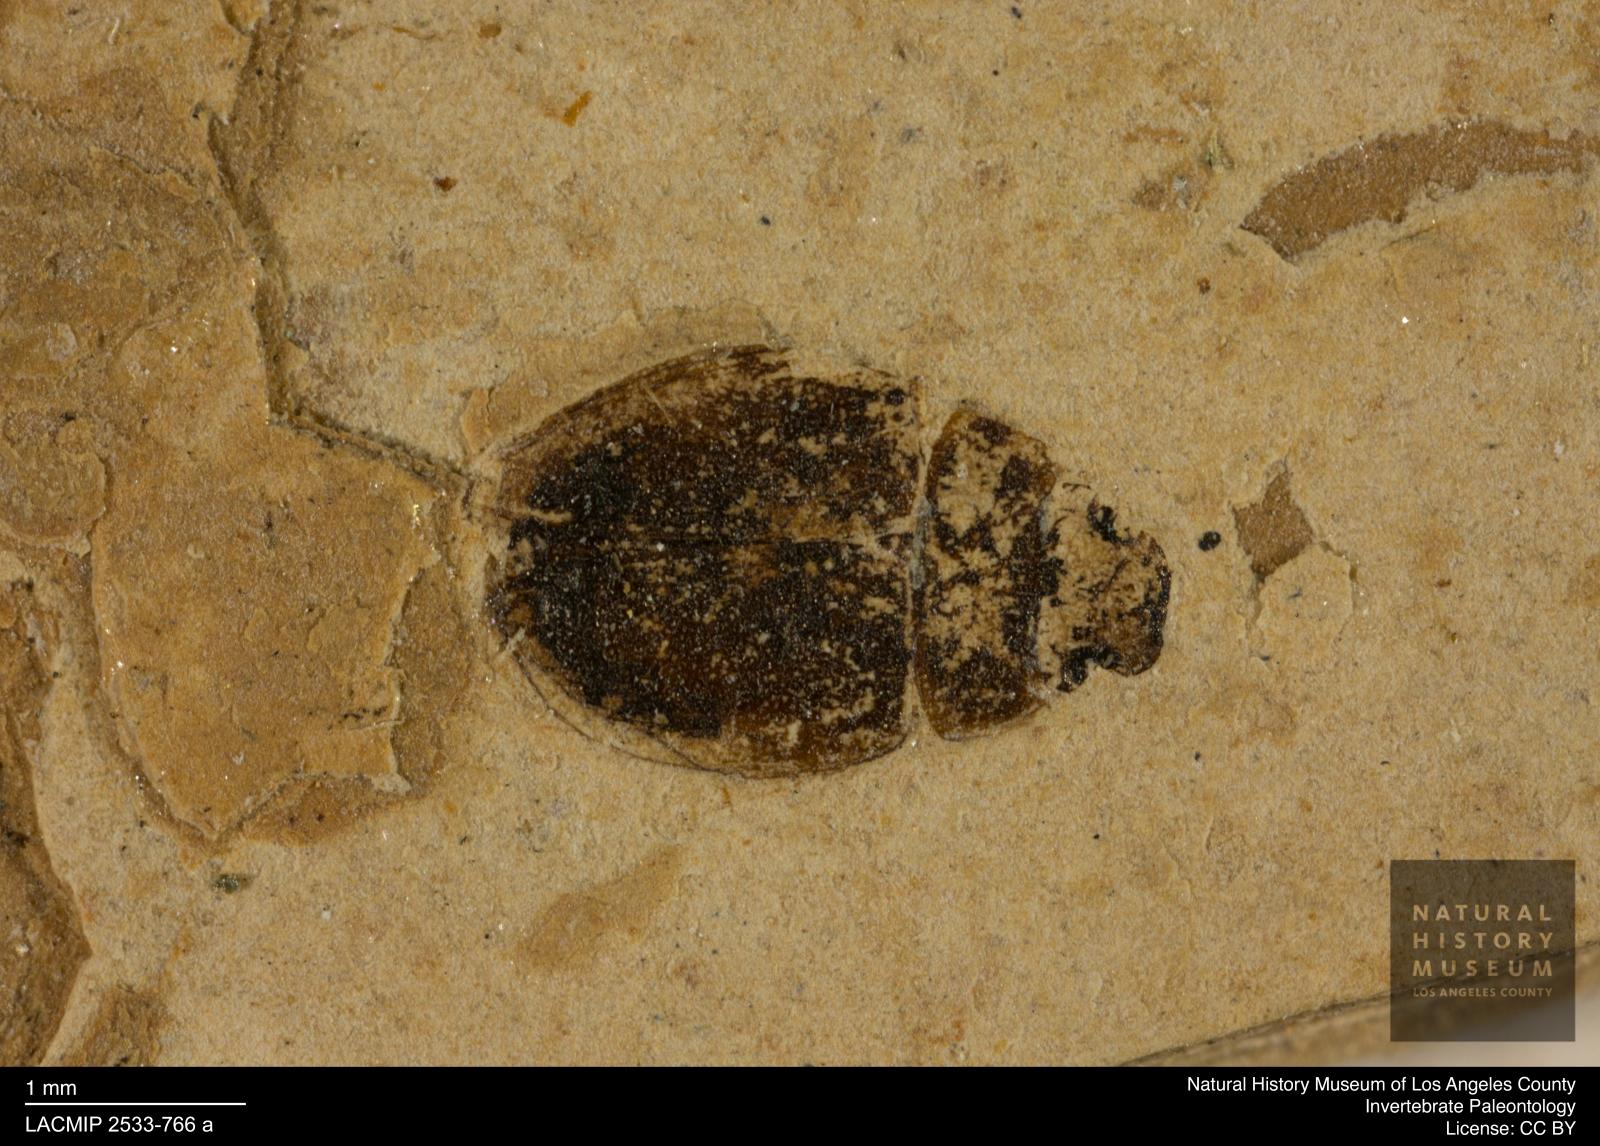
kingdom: Animalia
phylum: Arthropoda
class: Insecta
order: Coleoptera
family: Hydrophilidae
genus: Paracymus
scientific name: Paracymus excitatus
